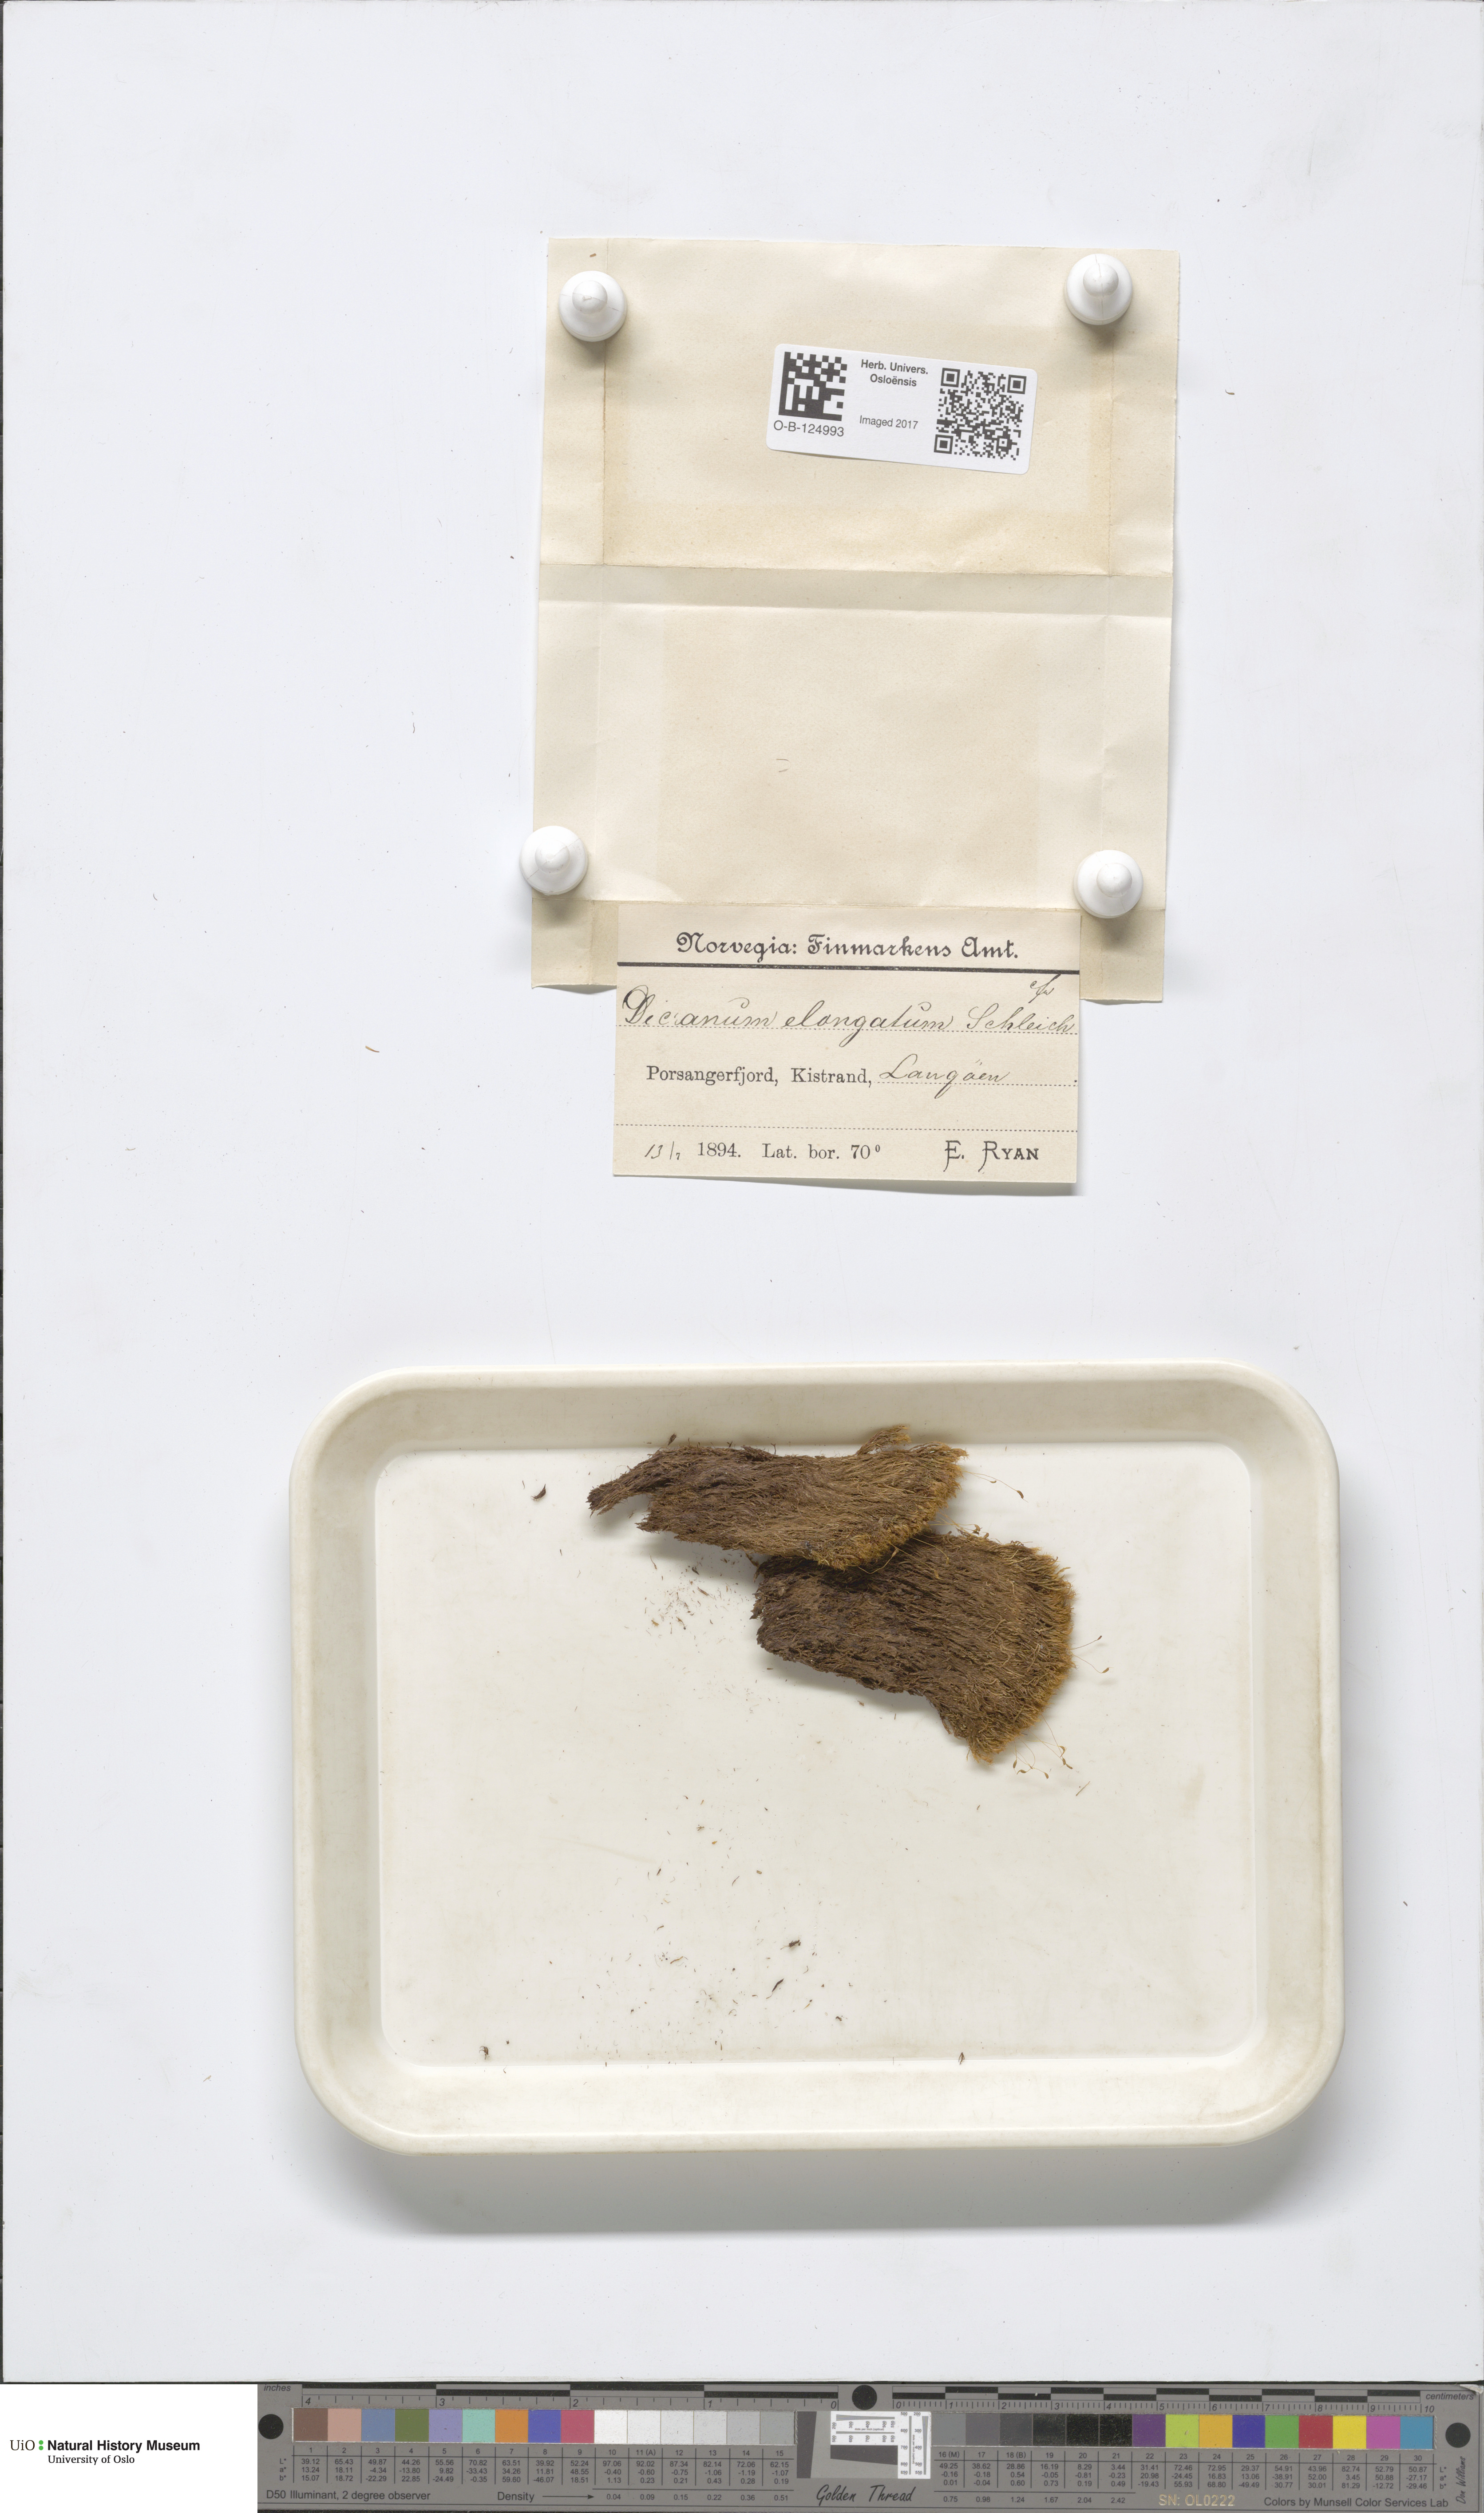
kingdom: Plantae
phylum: Bryophyta
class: Bryopsida
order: Dicranales
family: Dicranaceae
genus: Dicranum
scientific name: Dicranum elongatum
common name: Long-forked broom moss
